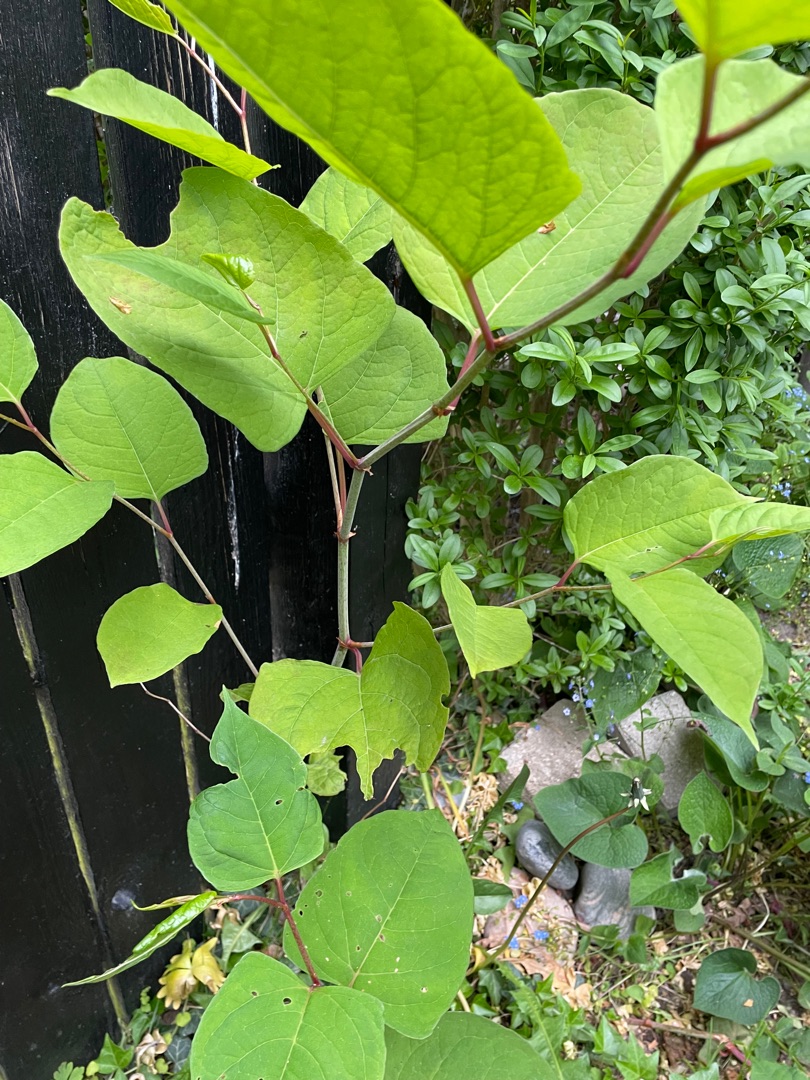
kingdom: Plantae
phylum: Tracheophyta
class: Magnoliopsida
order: Caryophyllales
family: Polygonaceae
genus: Reynoutria
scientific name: Reynoutria japonica
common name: Japan-pileurt
